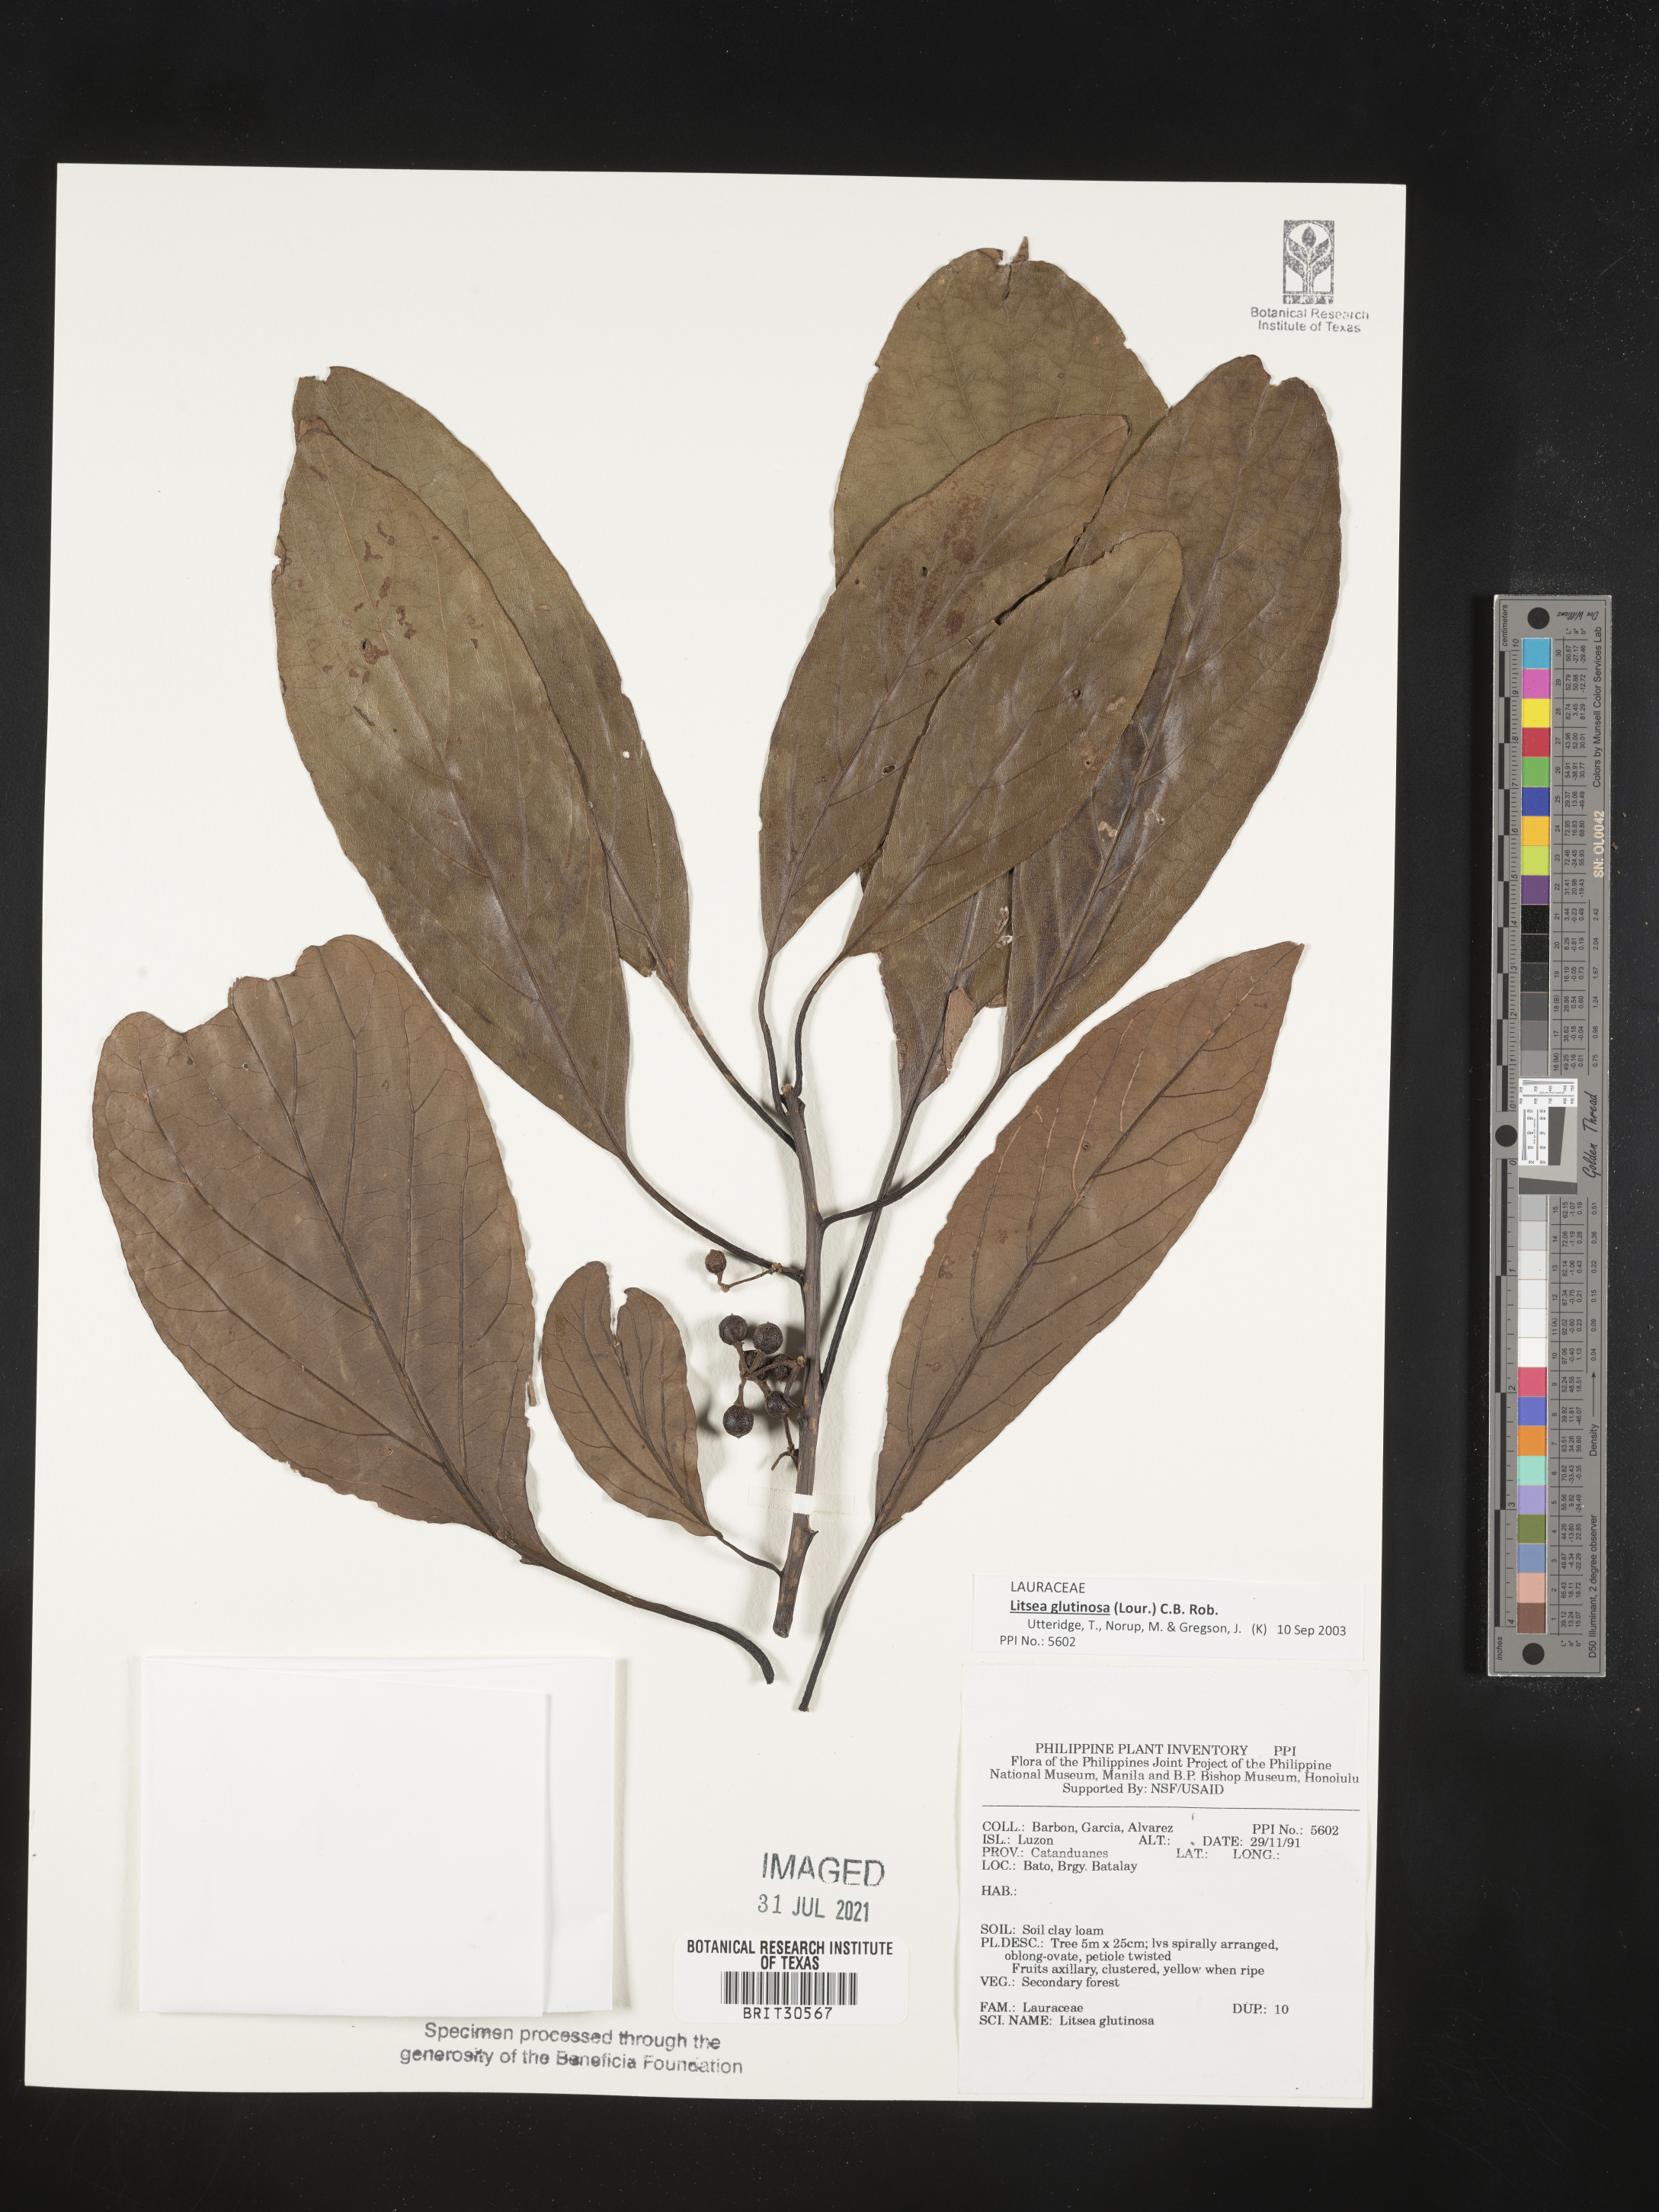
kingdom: Plantae
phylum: Tracheophyta
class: Magnoliopsida
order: Laurales
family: Lauraceae
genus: Litsea
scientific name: Litsea glutinosa
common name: Indian-laurel
